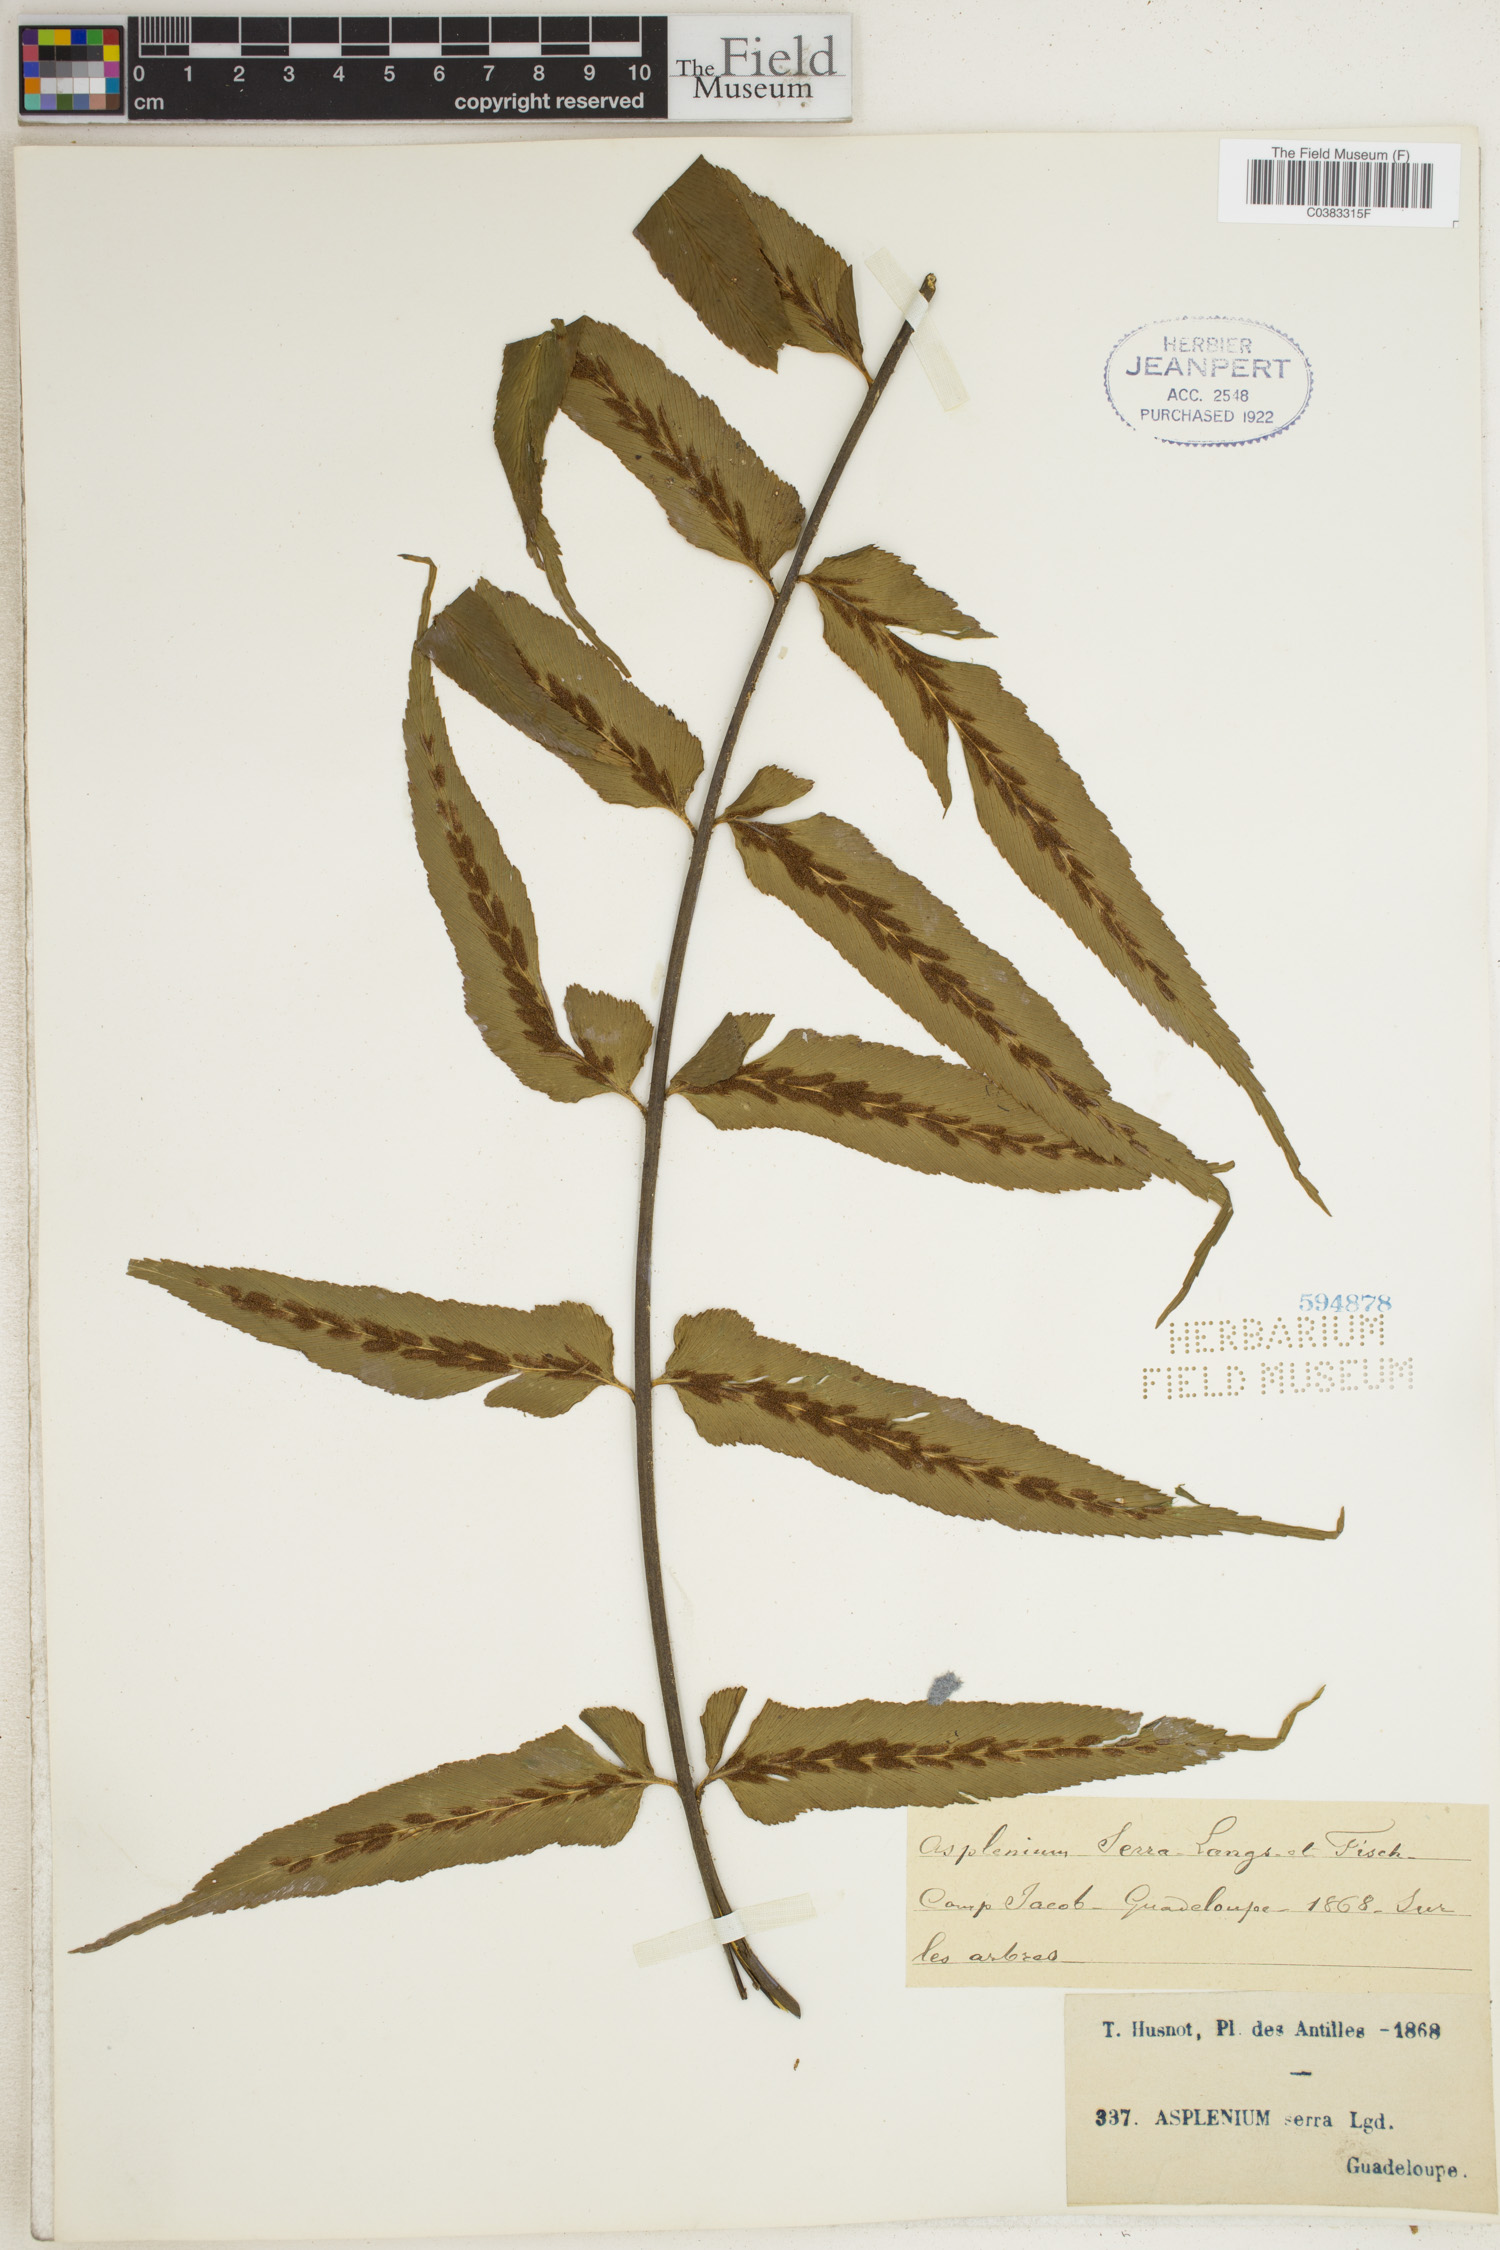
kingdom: Plantae
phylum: Tracheophyta
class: Polypodiopsida
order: Polypodiales
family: Aspleniaceae
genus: Asplenium
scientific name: Asplenium serra
